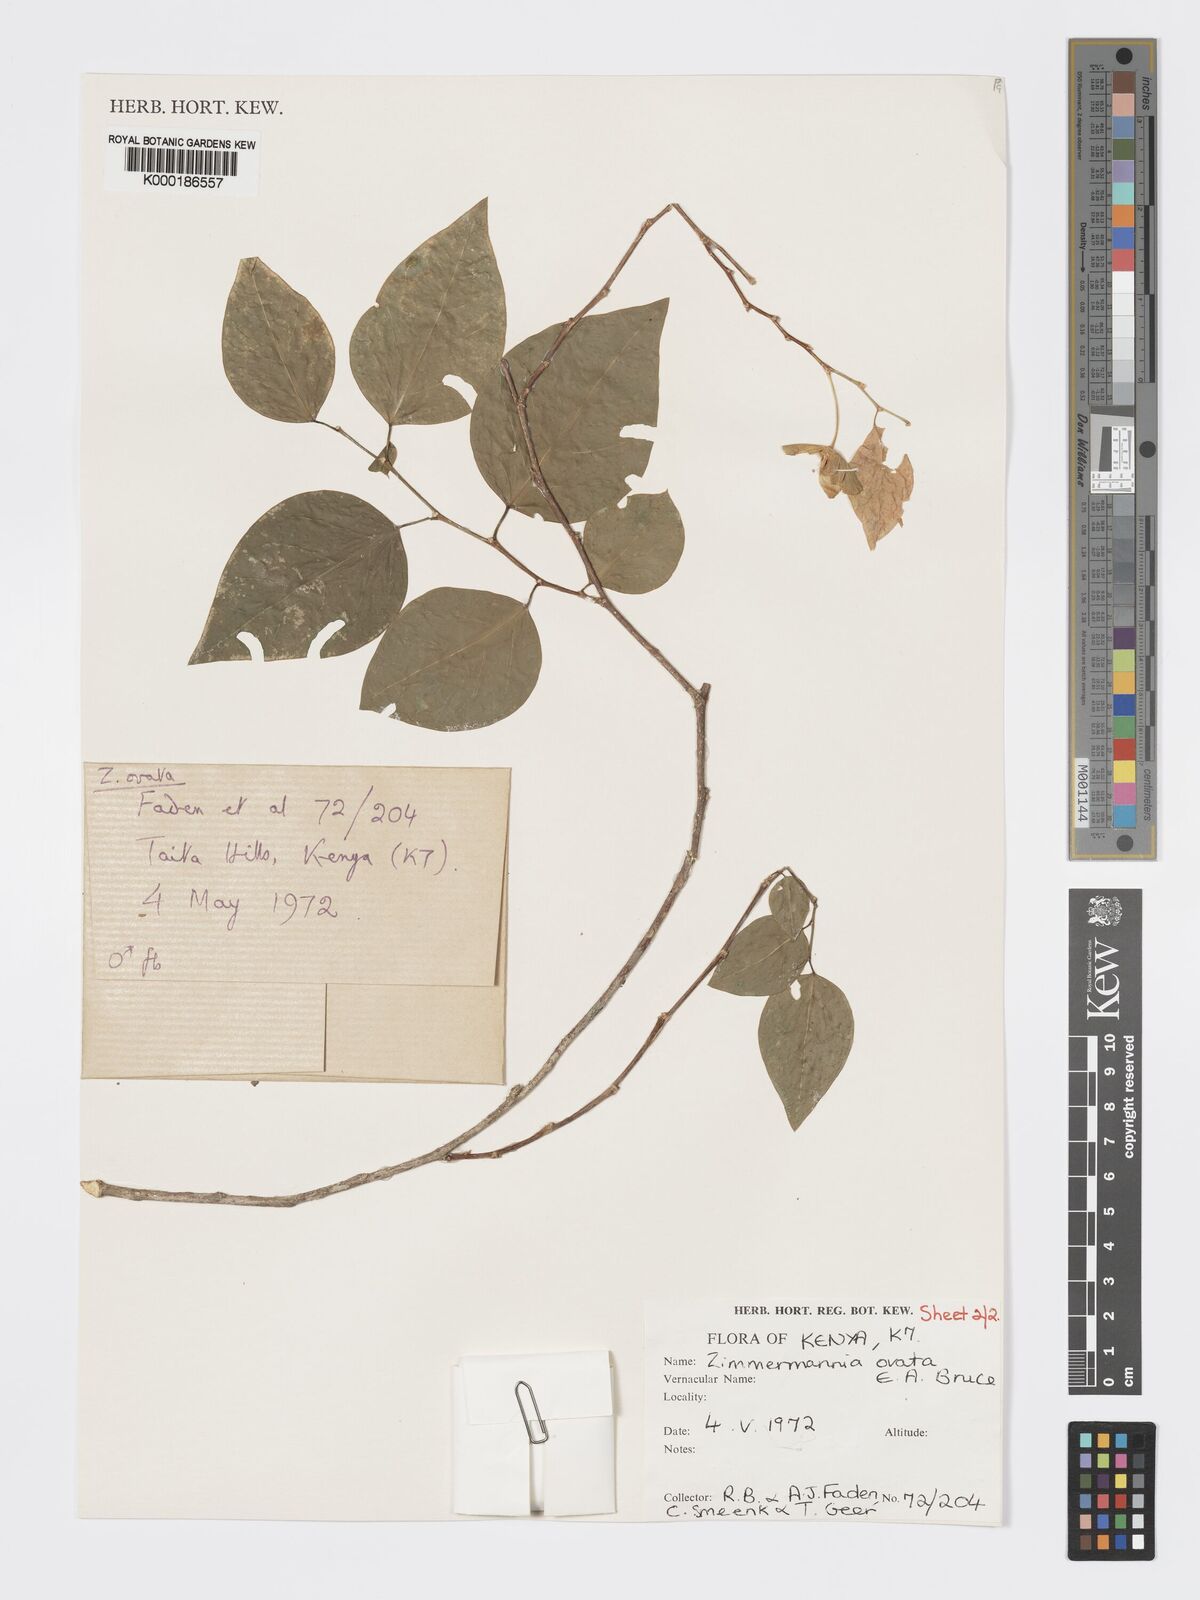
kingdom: Plantae
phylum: Tracheophyta
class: Magnoliopsida
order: Malpighiales
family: Phyllanthaceae
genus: Meineckia
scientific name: Meineckia ovata
